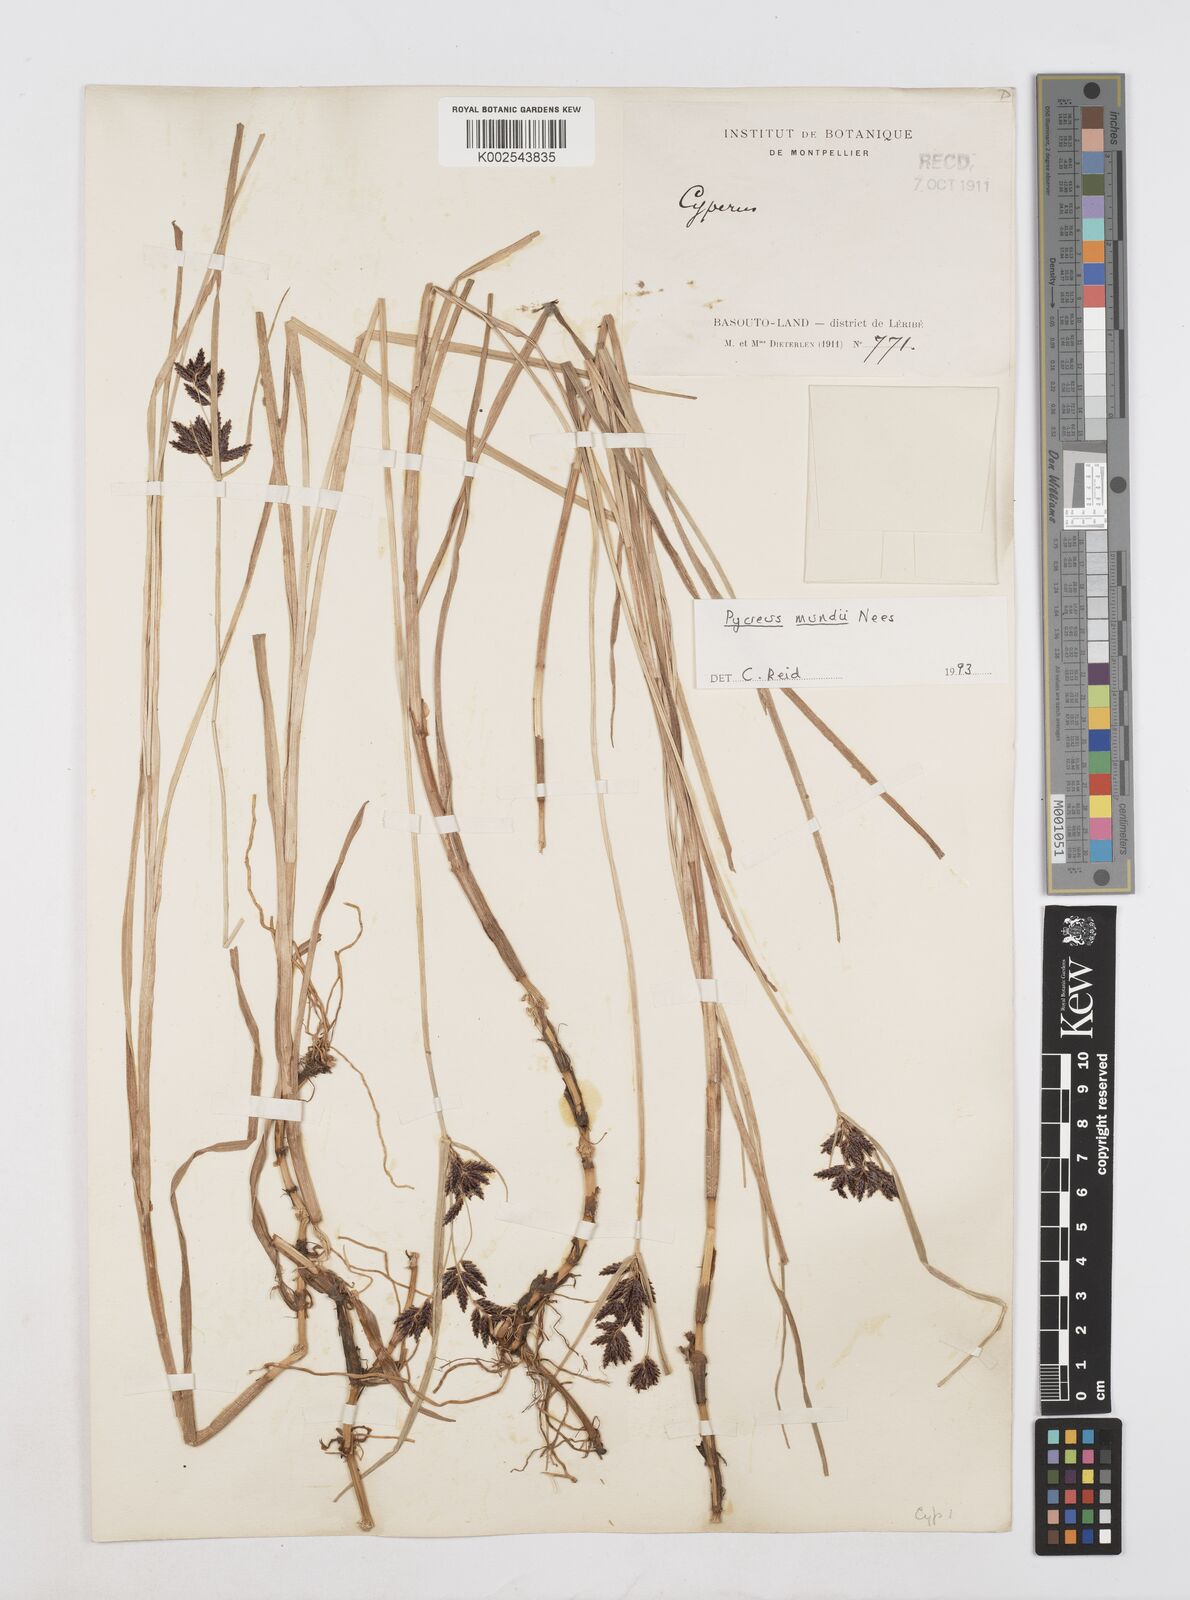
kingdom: Plantae
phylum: Tracheophyta
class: Liliopsida
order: Poales
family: Cyperaceae
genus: Cyperus
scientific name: Cyperus mundii
